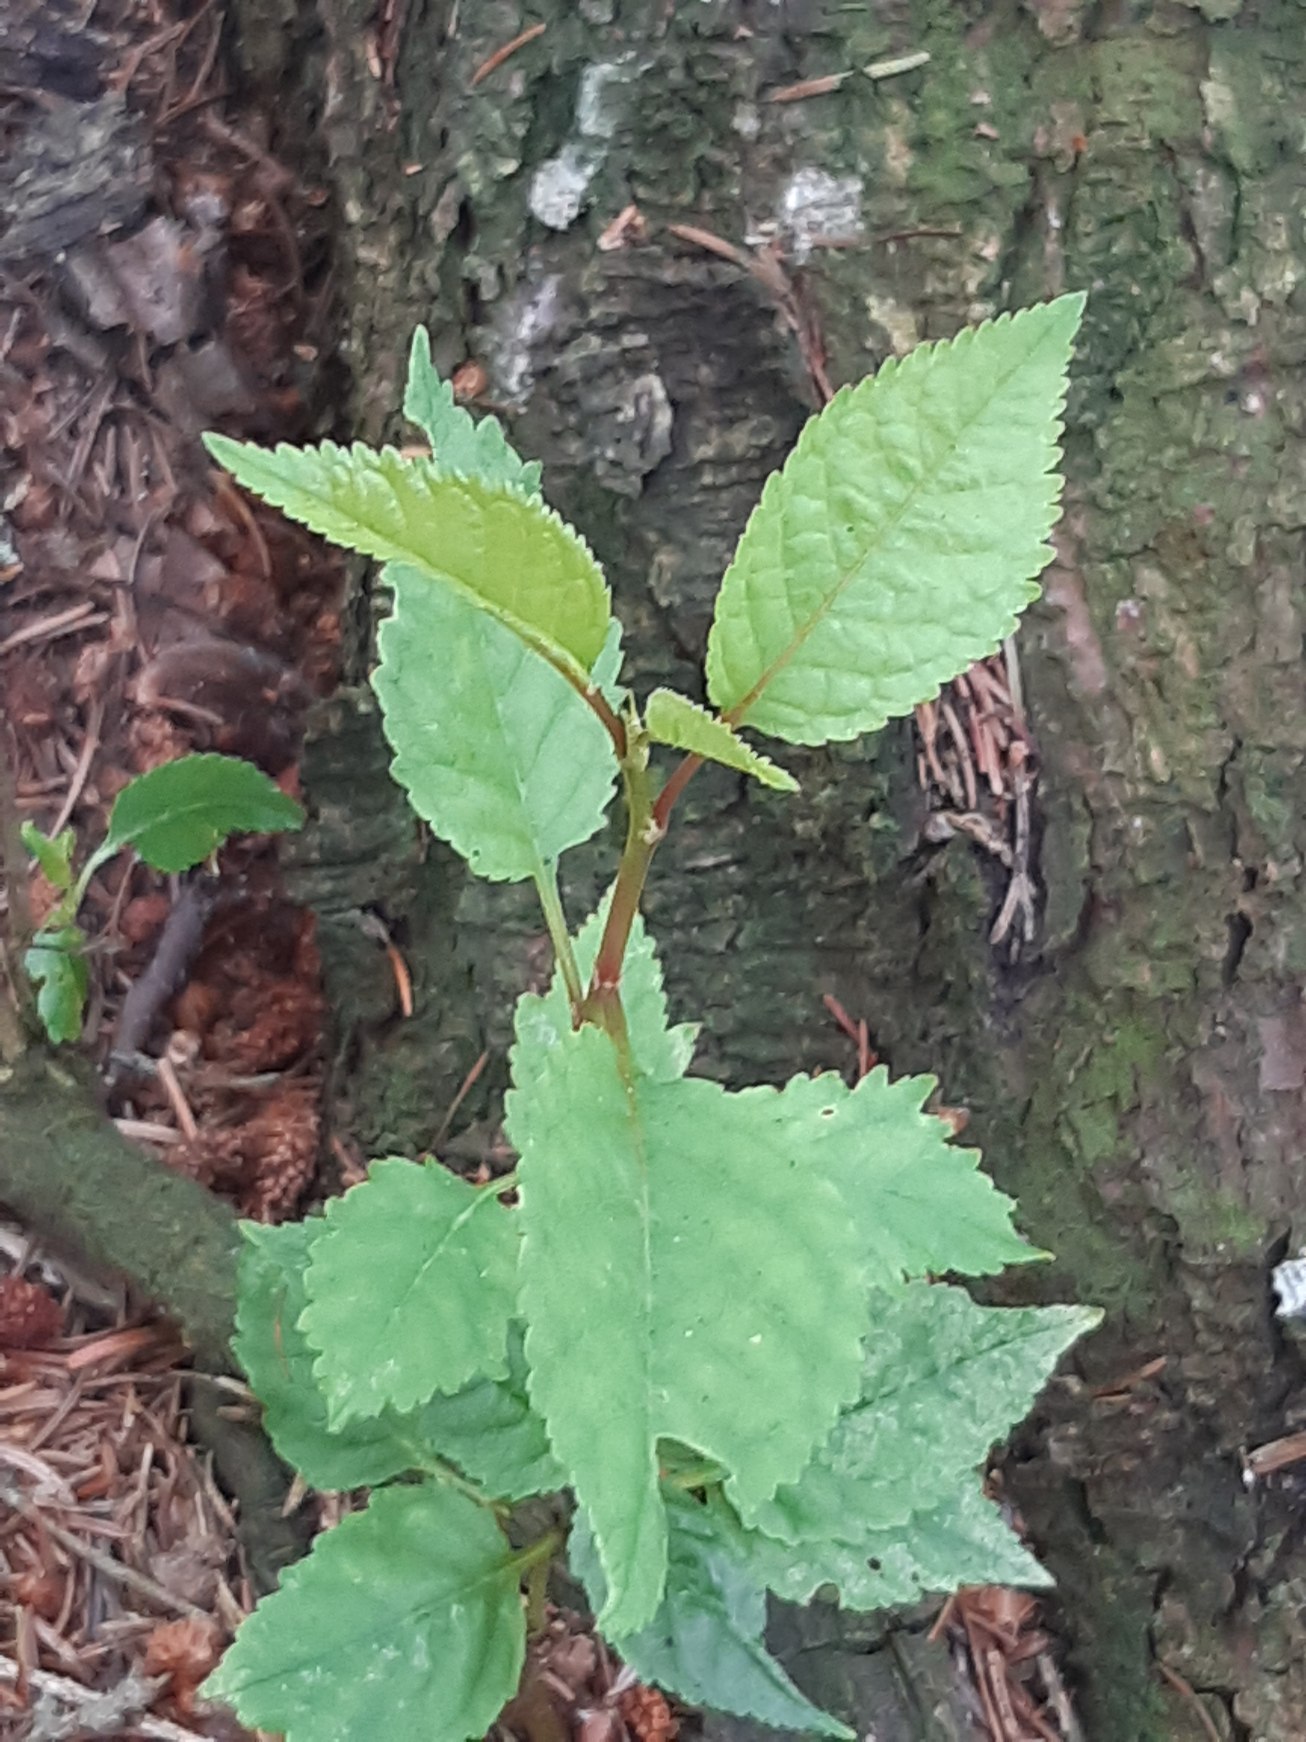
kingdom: Plantae
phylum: Tracheophyta
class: Magnoliopsida
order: Rosales
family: Rosaceae
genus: Prunus
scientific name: Prunus avium
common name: Fugle-kirsebær
